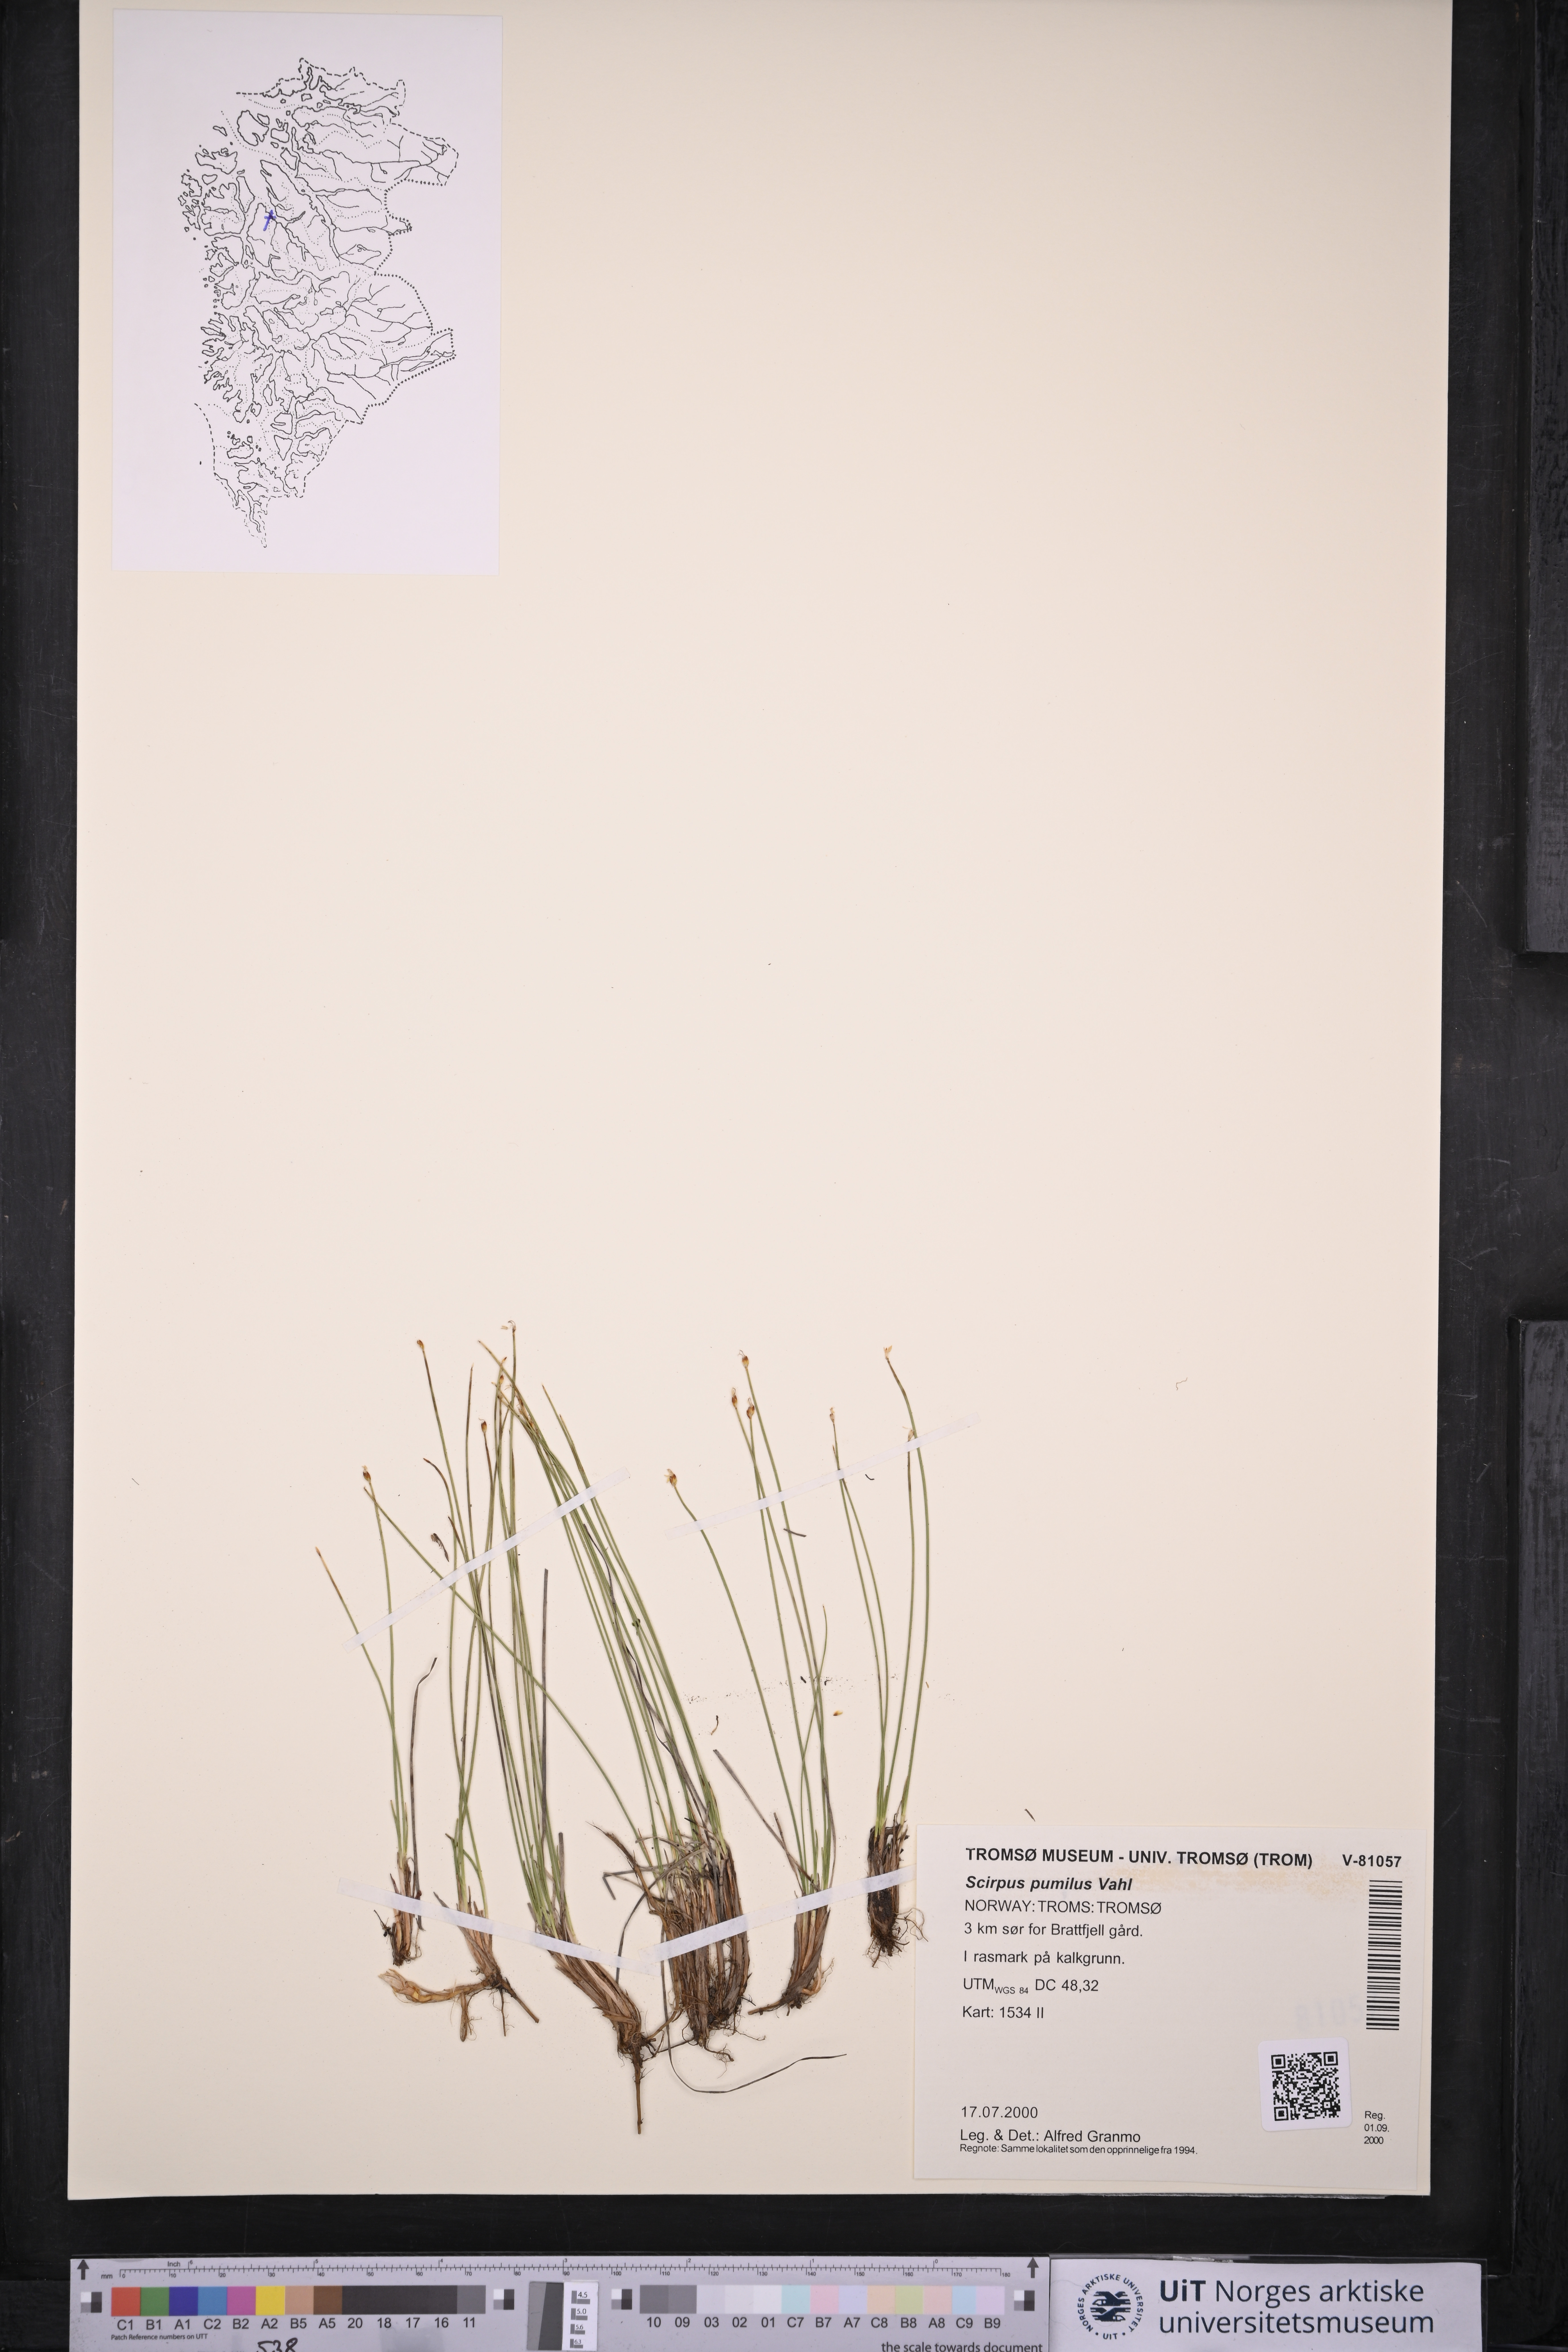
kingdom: Plantae
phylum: Tracheophyta
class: Liliopsida
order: Poales
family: Cyperaceae
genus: Trichophorum
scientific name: Trichophorum pumilum
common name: Rolland's bulrush
